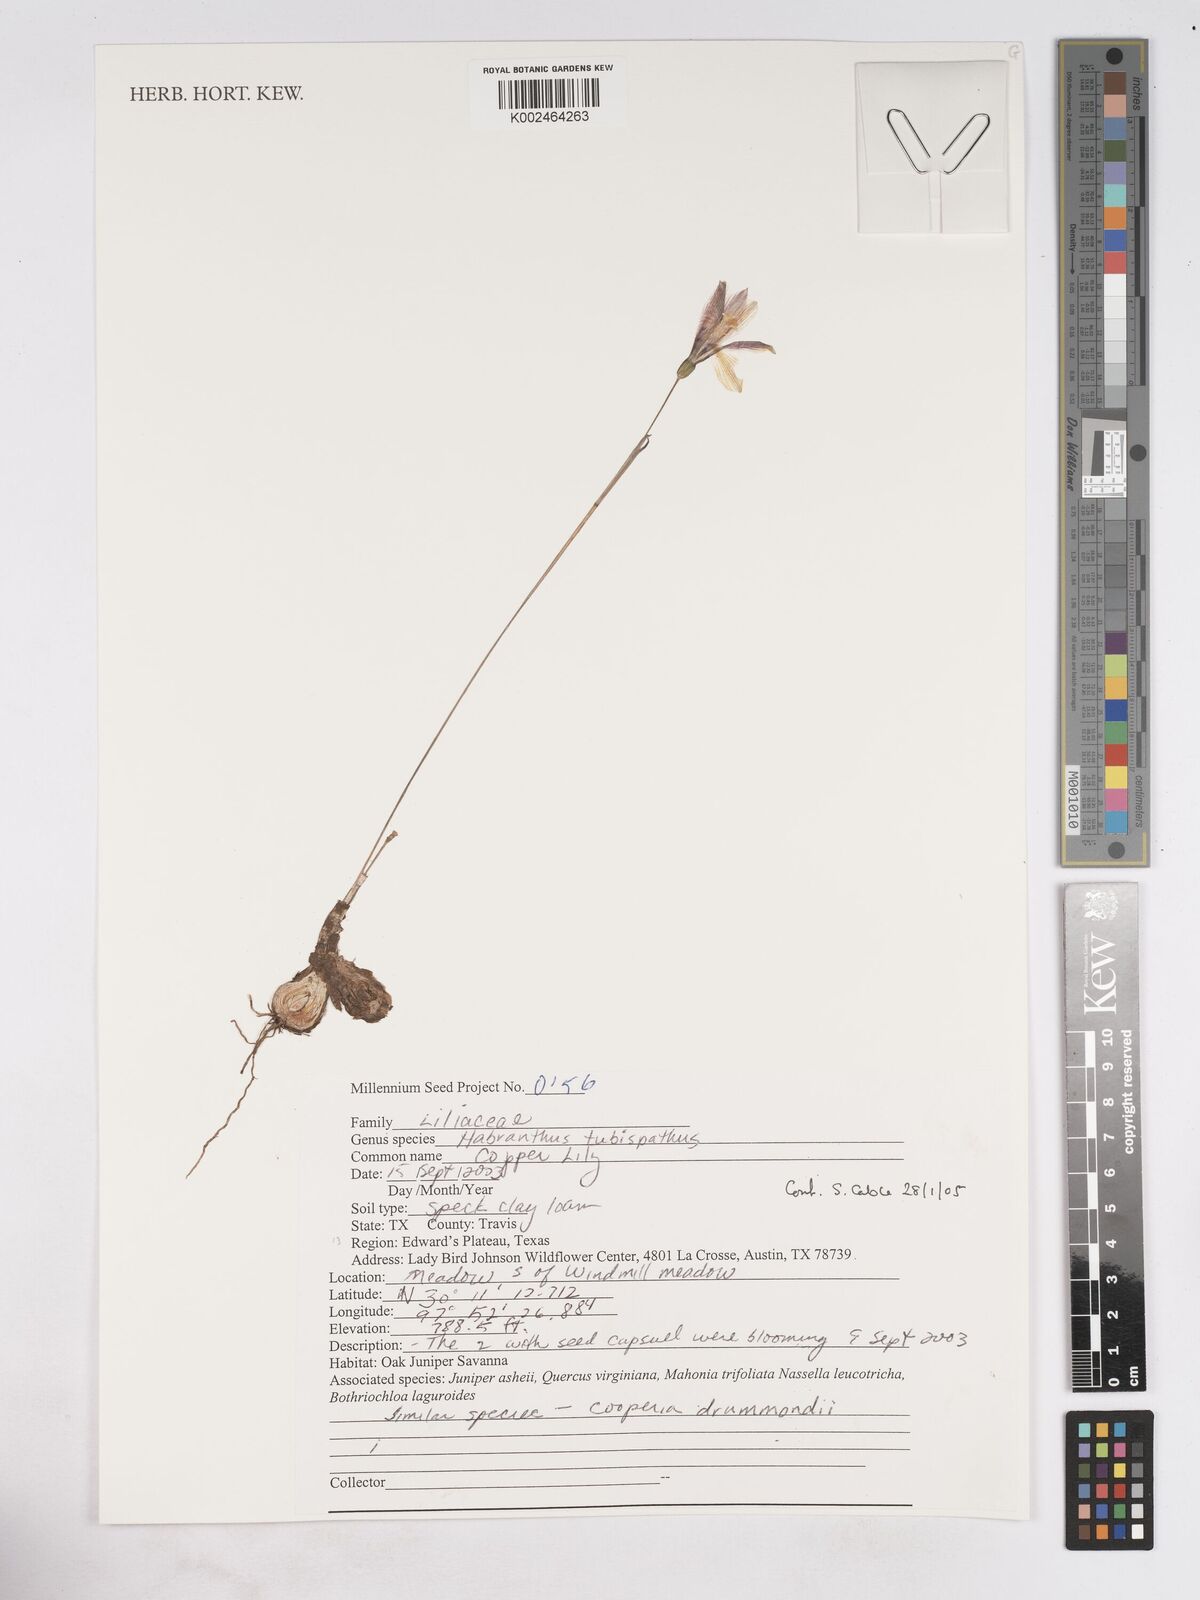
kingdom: Plantae
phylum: Tracheophyta
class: Liliopsida
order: Asparagales
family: Amaryllidaceae
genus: Zephyranthes
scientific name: Zephyranthes tubispatha
